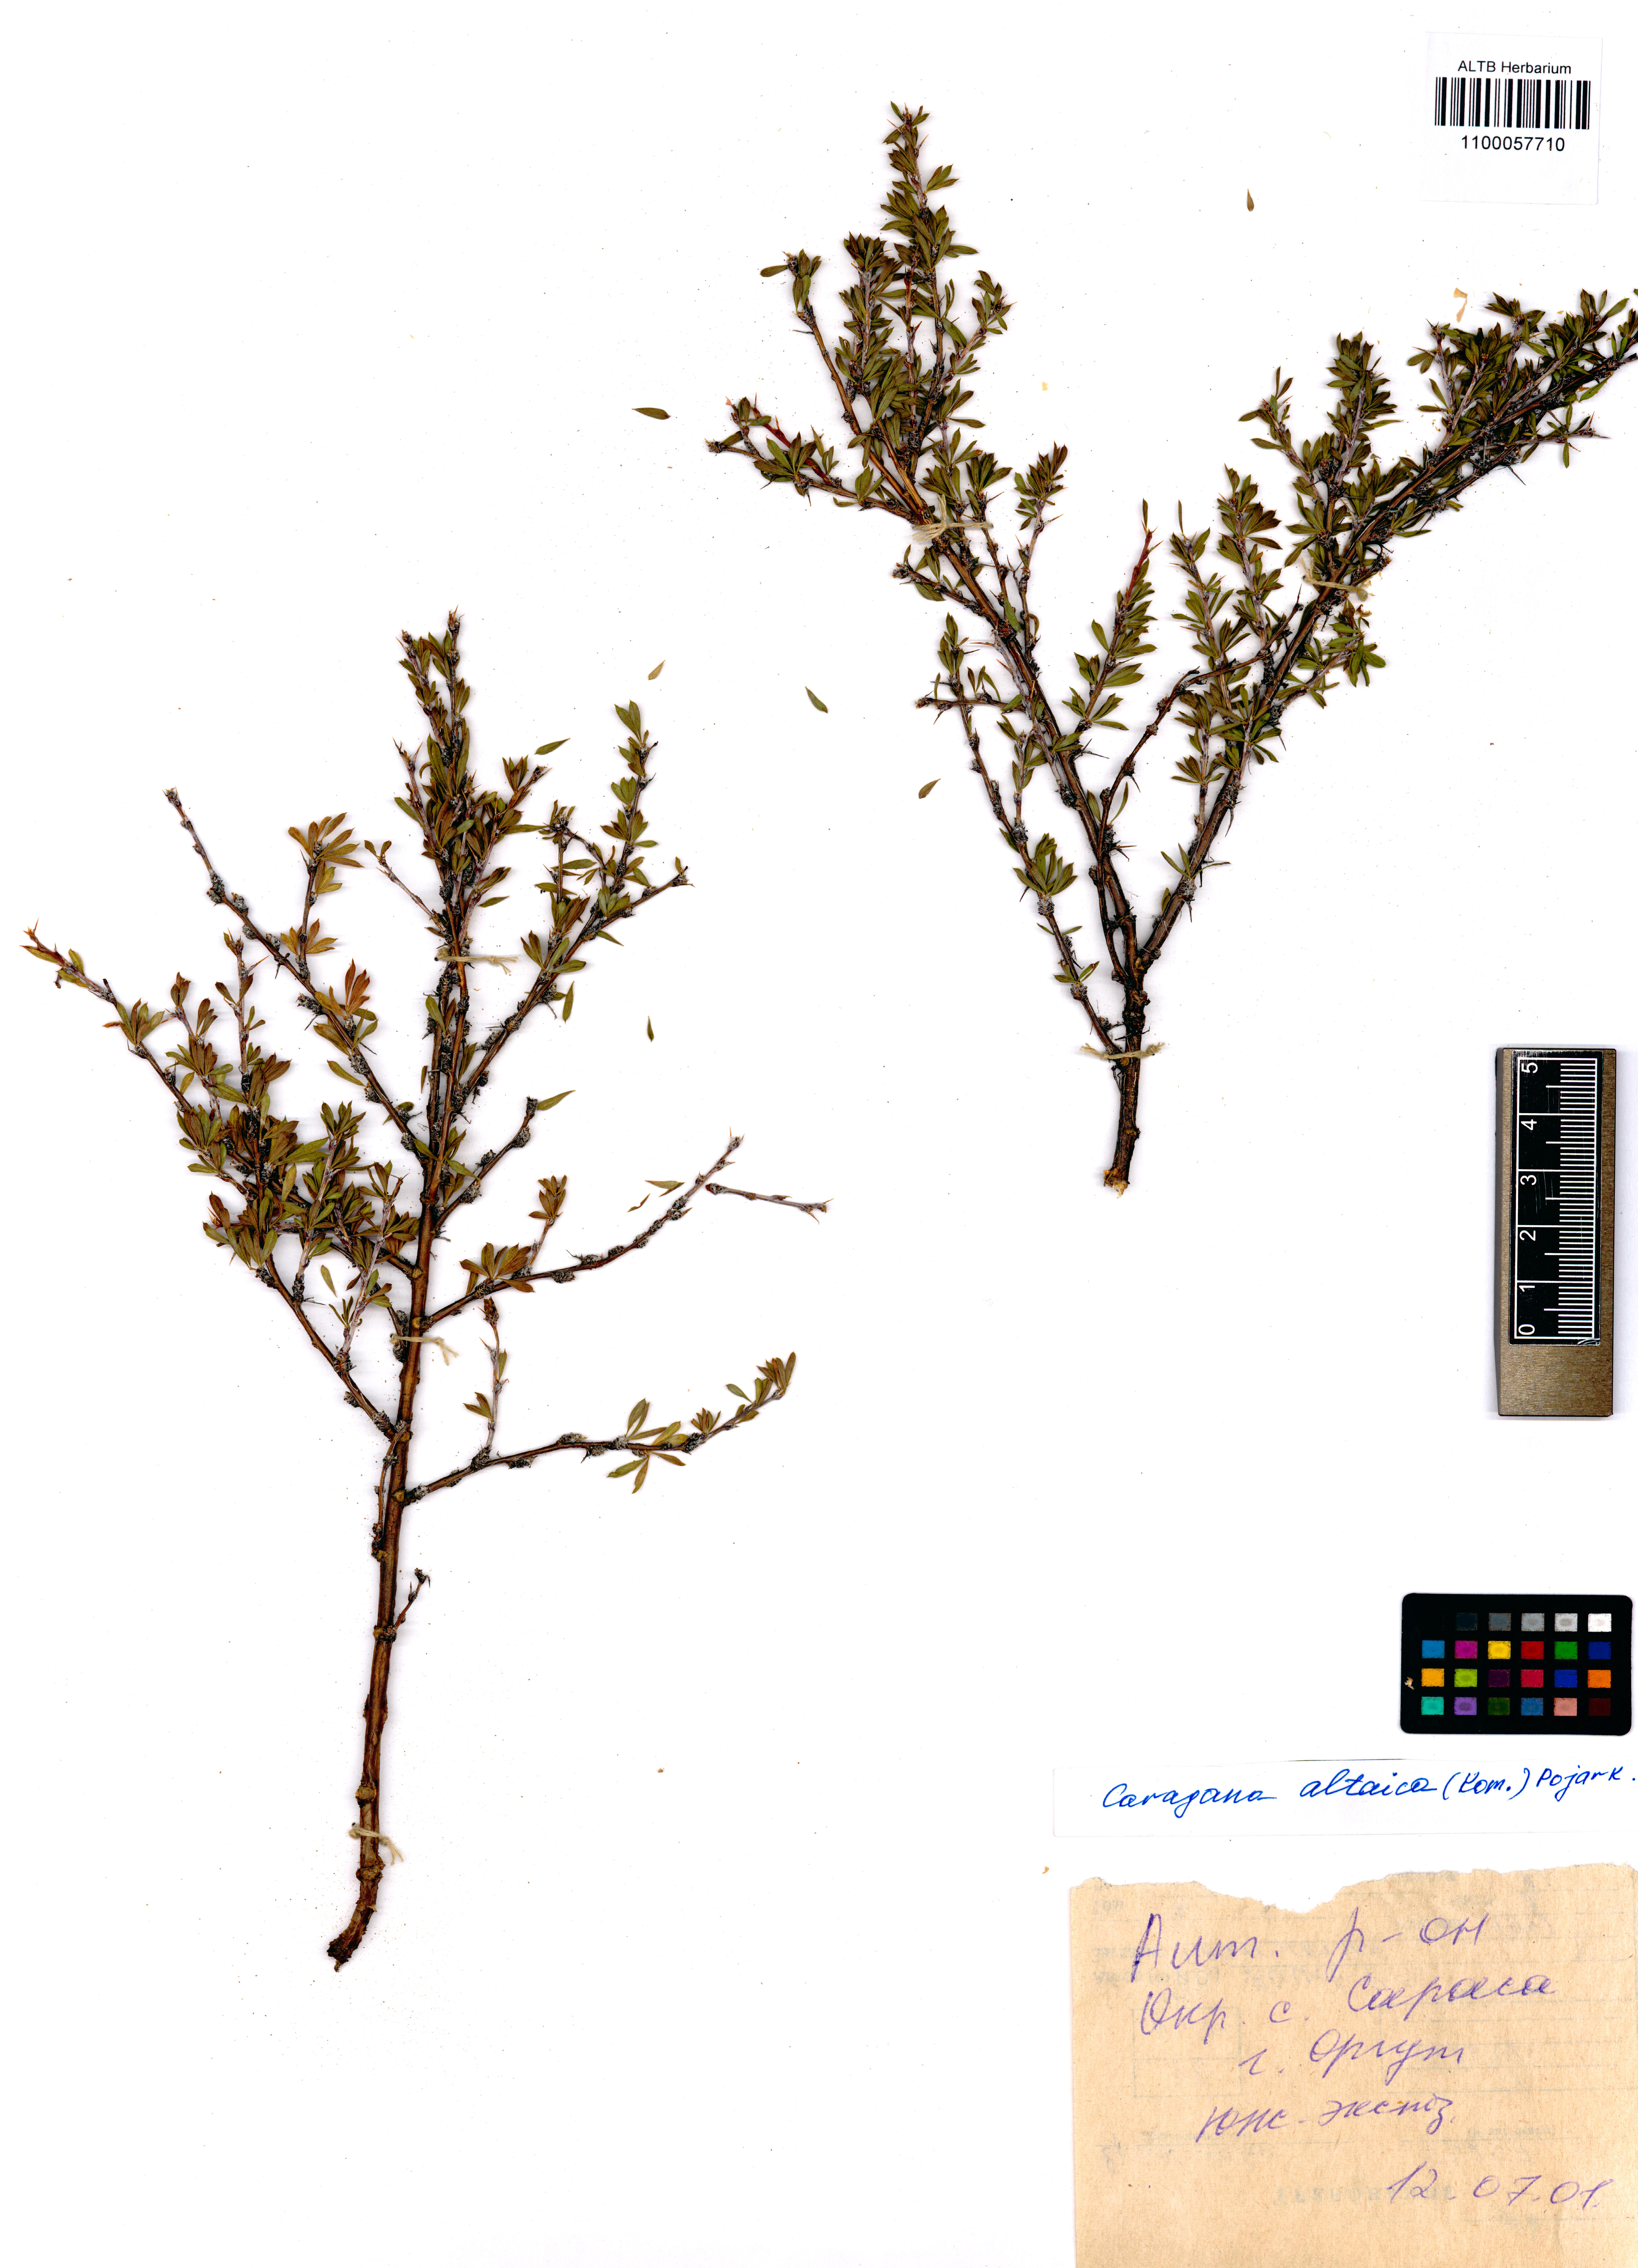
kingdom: Plantae
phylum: Tracheophyta
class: Magnoliopsida
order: Fabales
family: Fabaceae
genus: Caragana
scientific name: Caragana pygmaea
